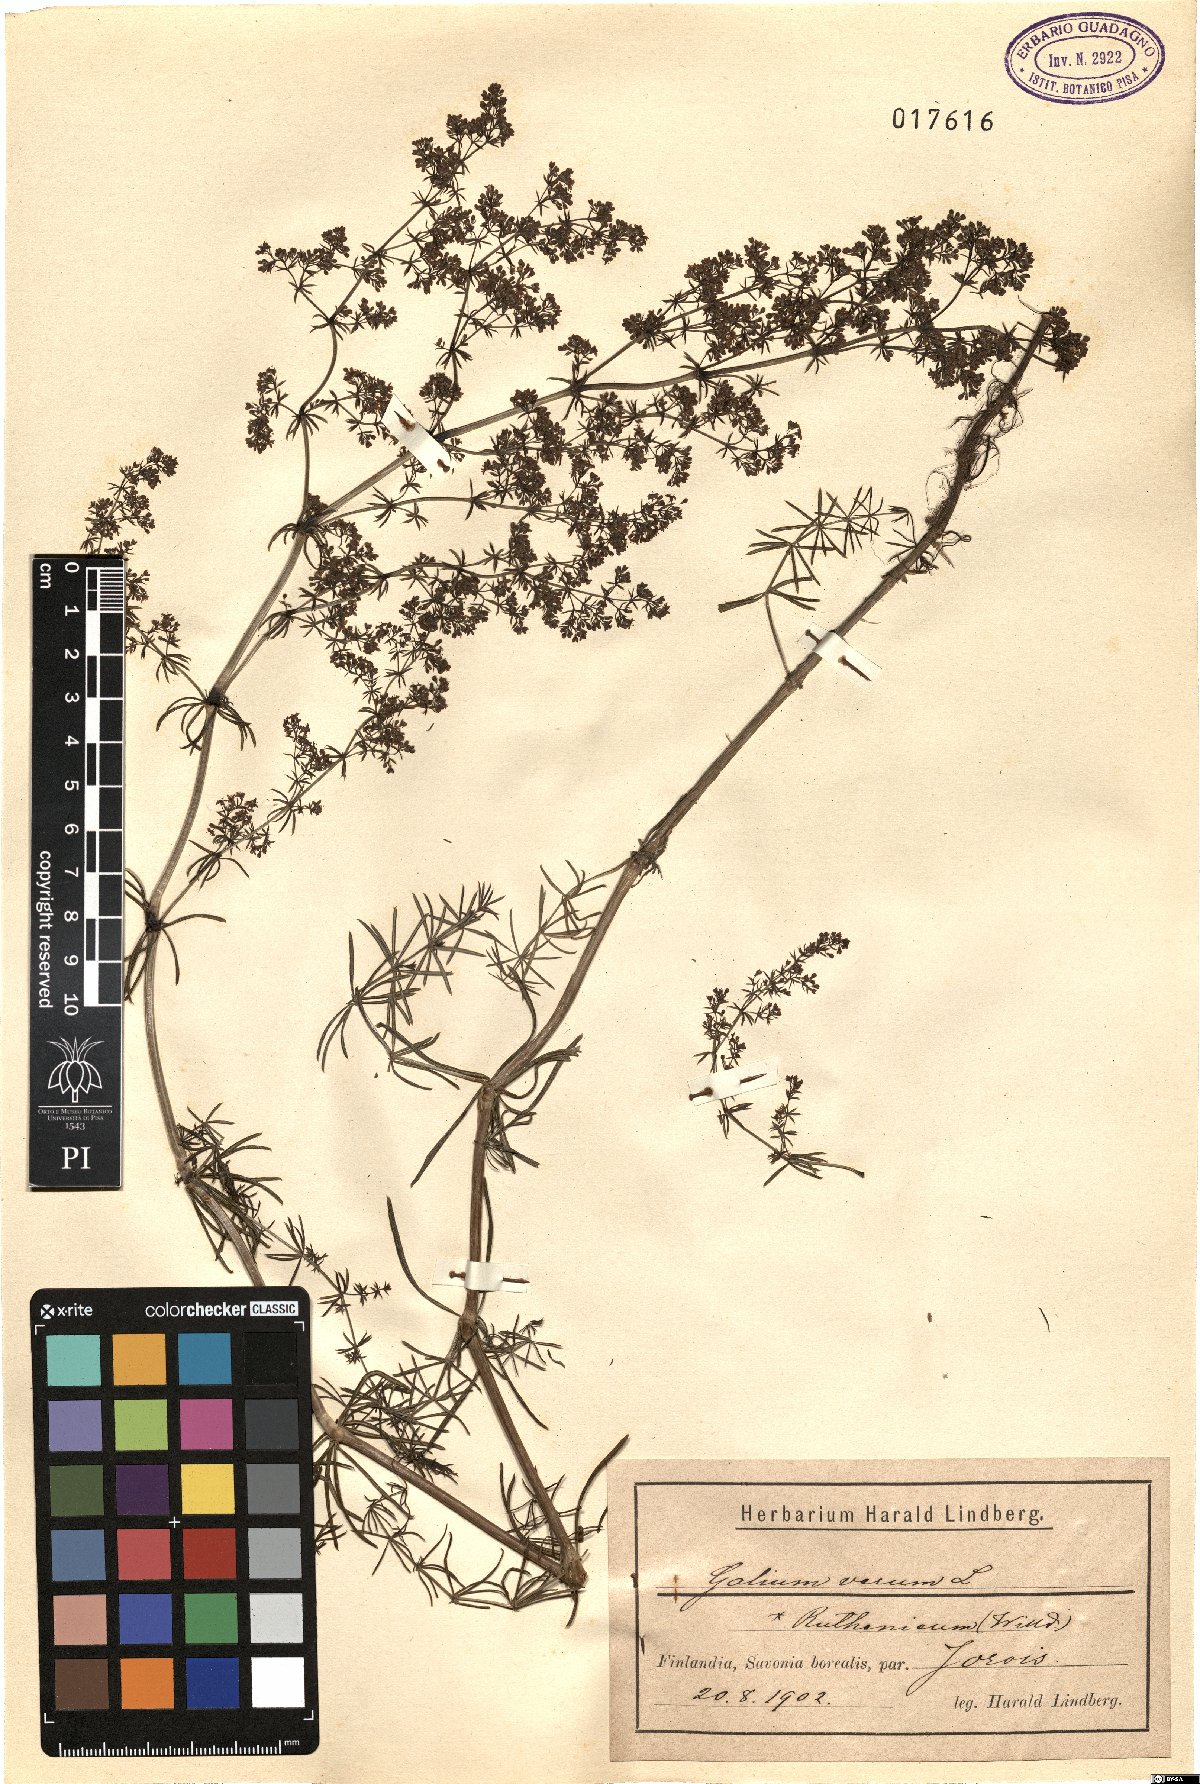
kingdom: Plantae
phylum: Tracheophyta
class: Magnoliopsida
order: Gentianales
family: Rubiaceae
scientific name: Rubiaceae
